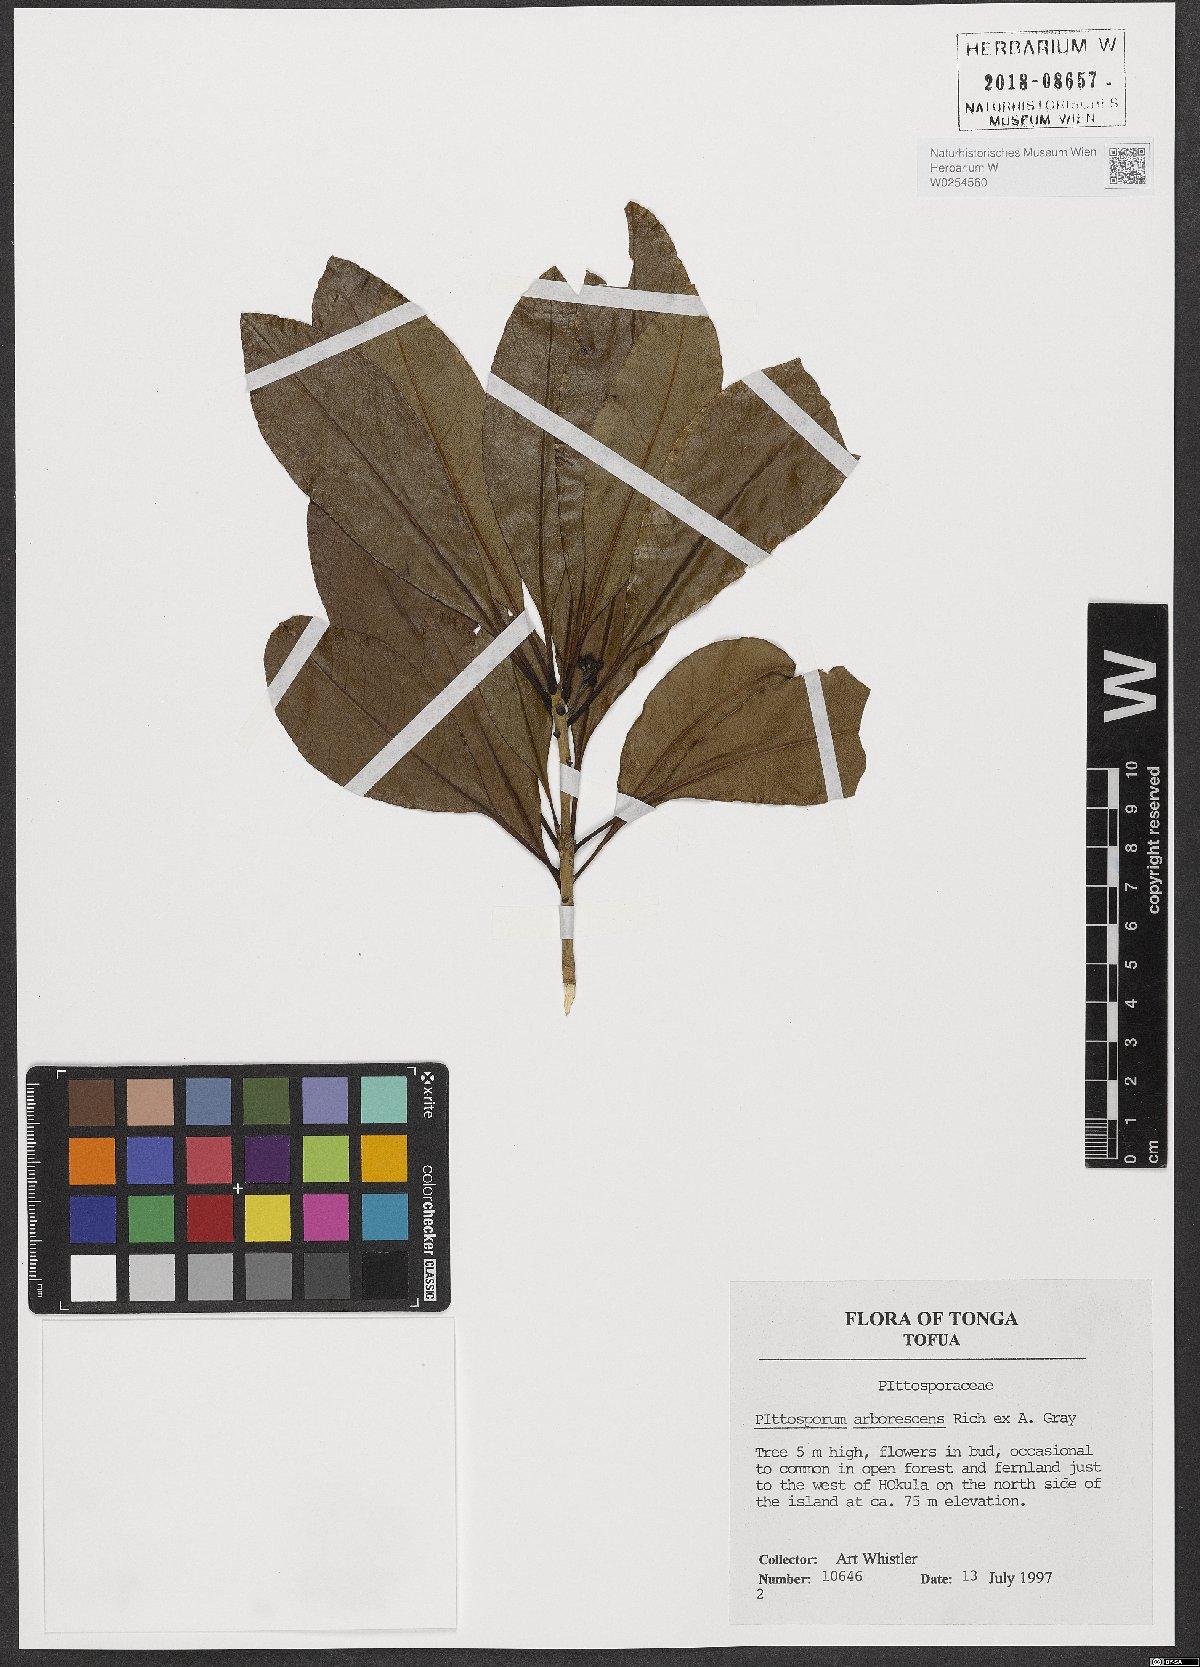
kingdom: Plantae
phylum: Tracheophyta
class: Magnoliopsida
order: Apiales
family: Pittosporaceae
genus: Pittosporum
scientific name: Pittosporum arborescens
